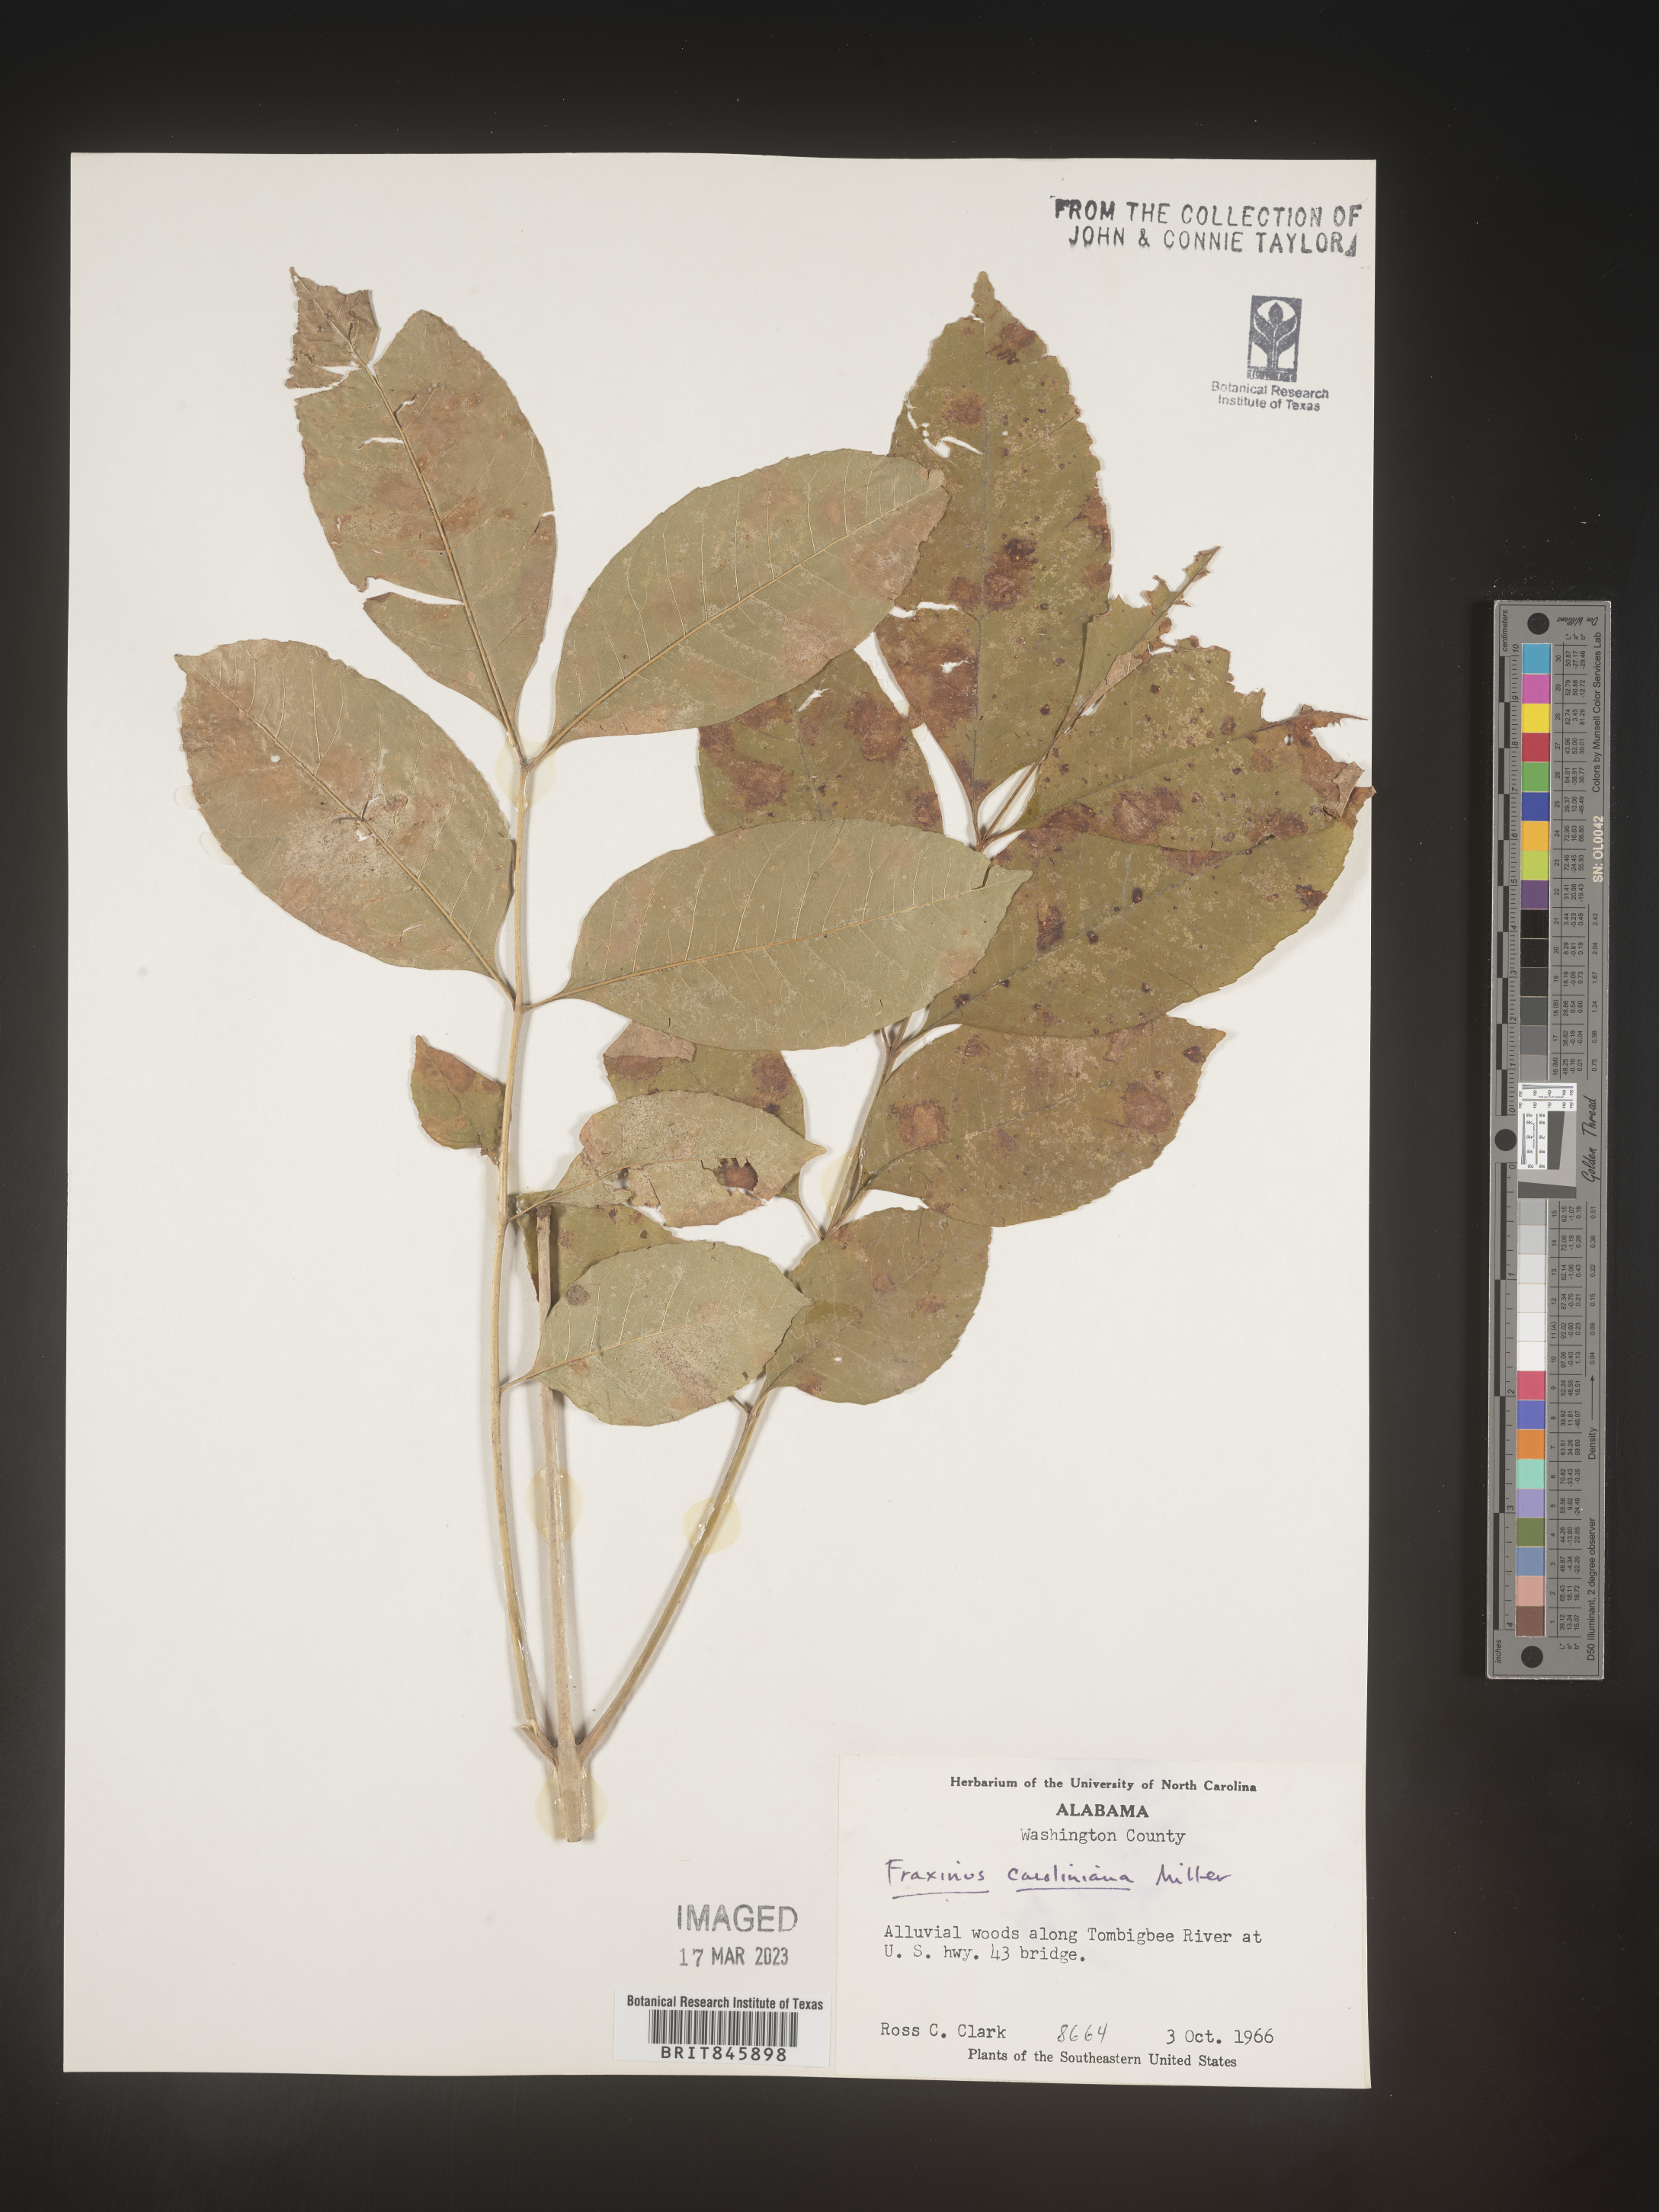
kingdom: Plantae
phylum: Tracheophyta
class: Magnoliopsida
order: Lamiales
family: Oleaceae
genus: Fraxinus
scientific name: Fraxinus caroliniana
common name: Carolina ash
